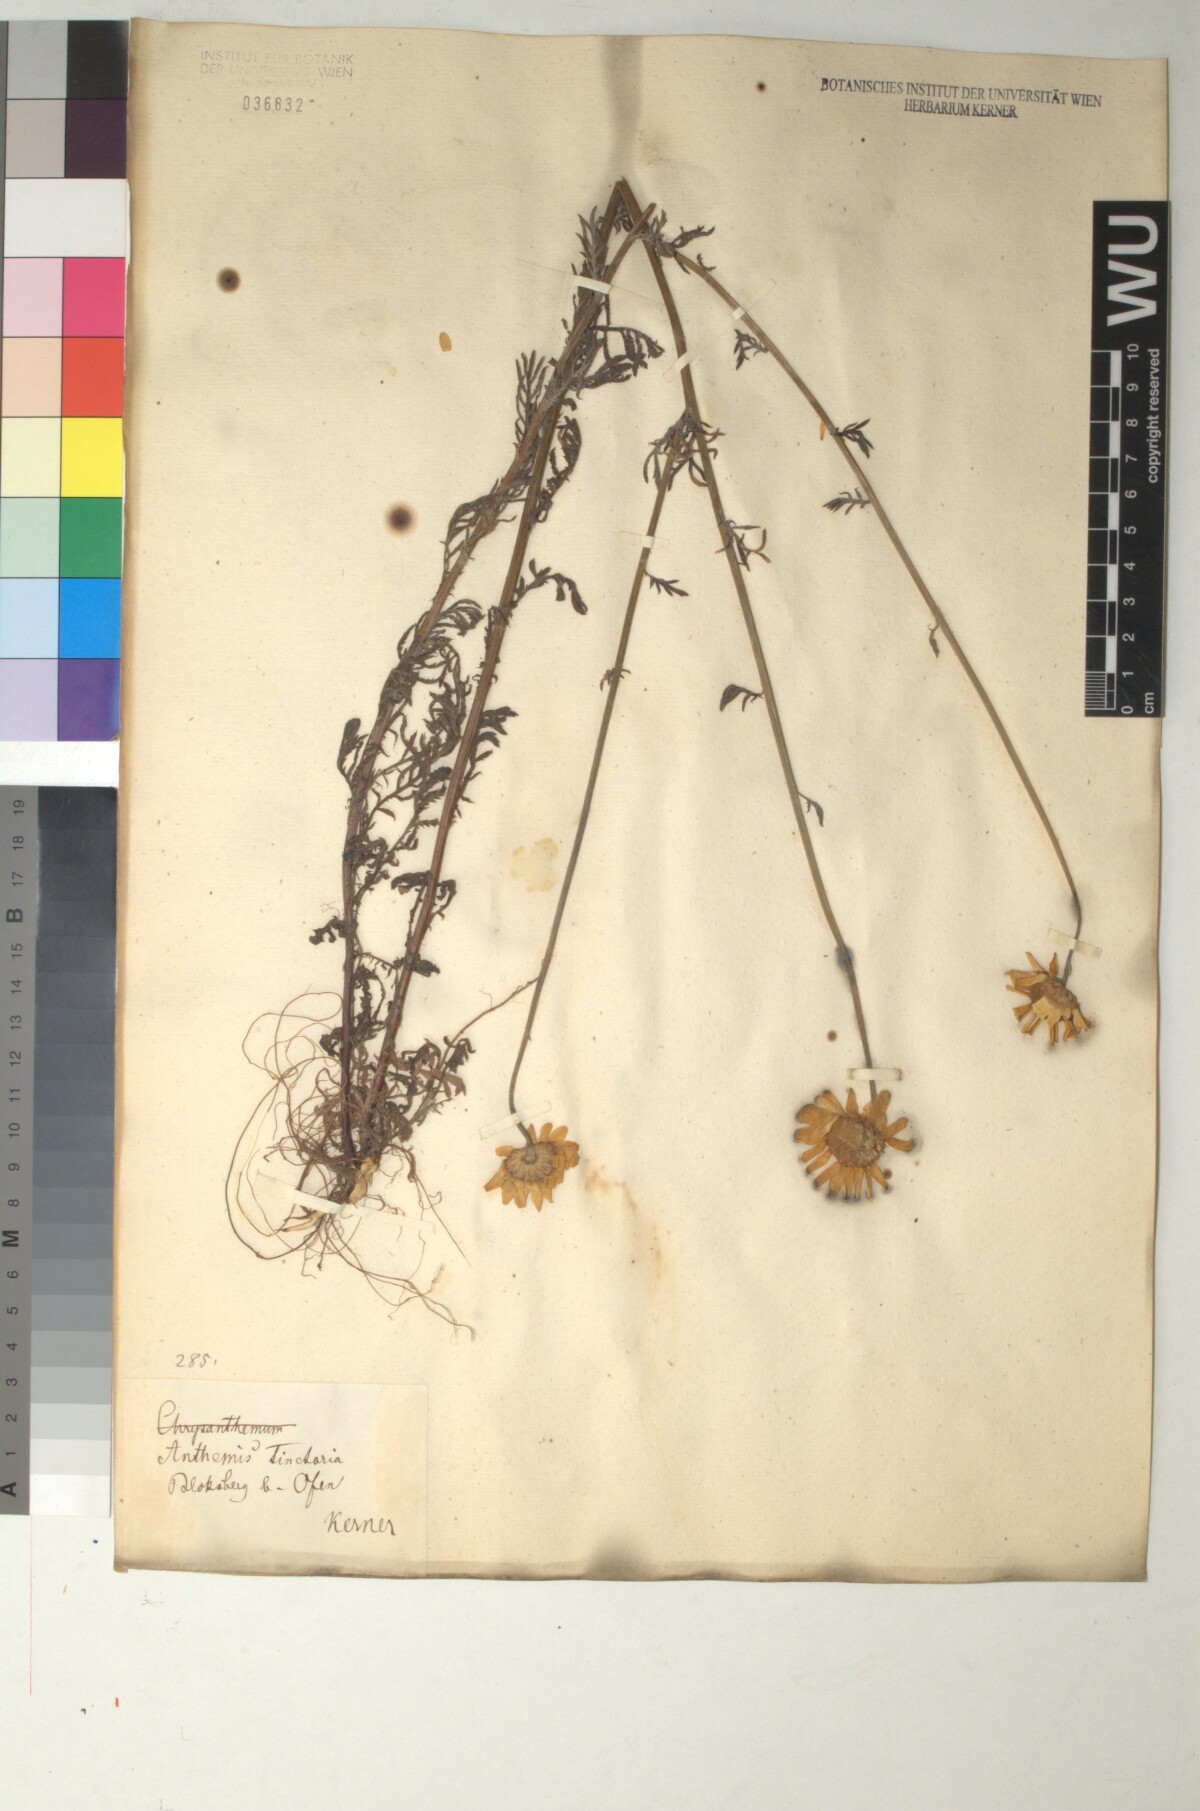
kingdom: Plantae
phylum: Tracheophyta
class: Magnoliopsida
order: Asterales
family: Asteraceae
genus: Cota
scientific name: Cota tinctoria
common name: Golden chamomile
